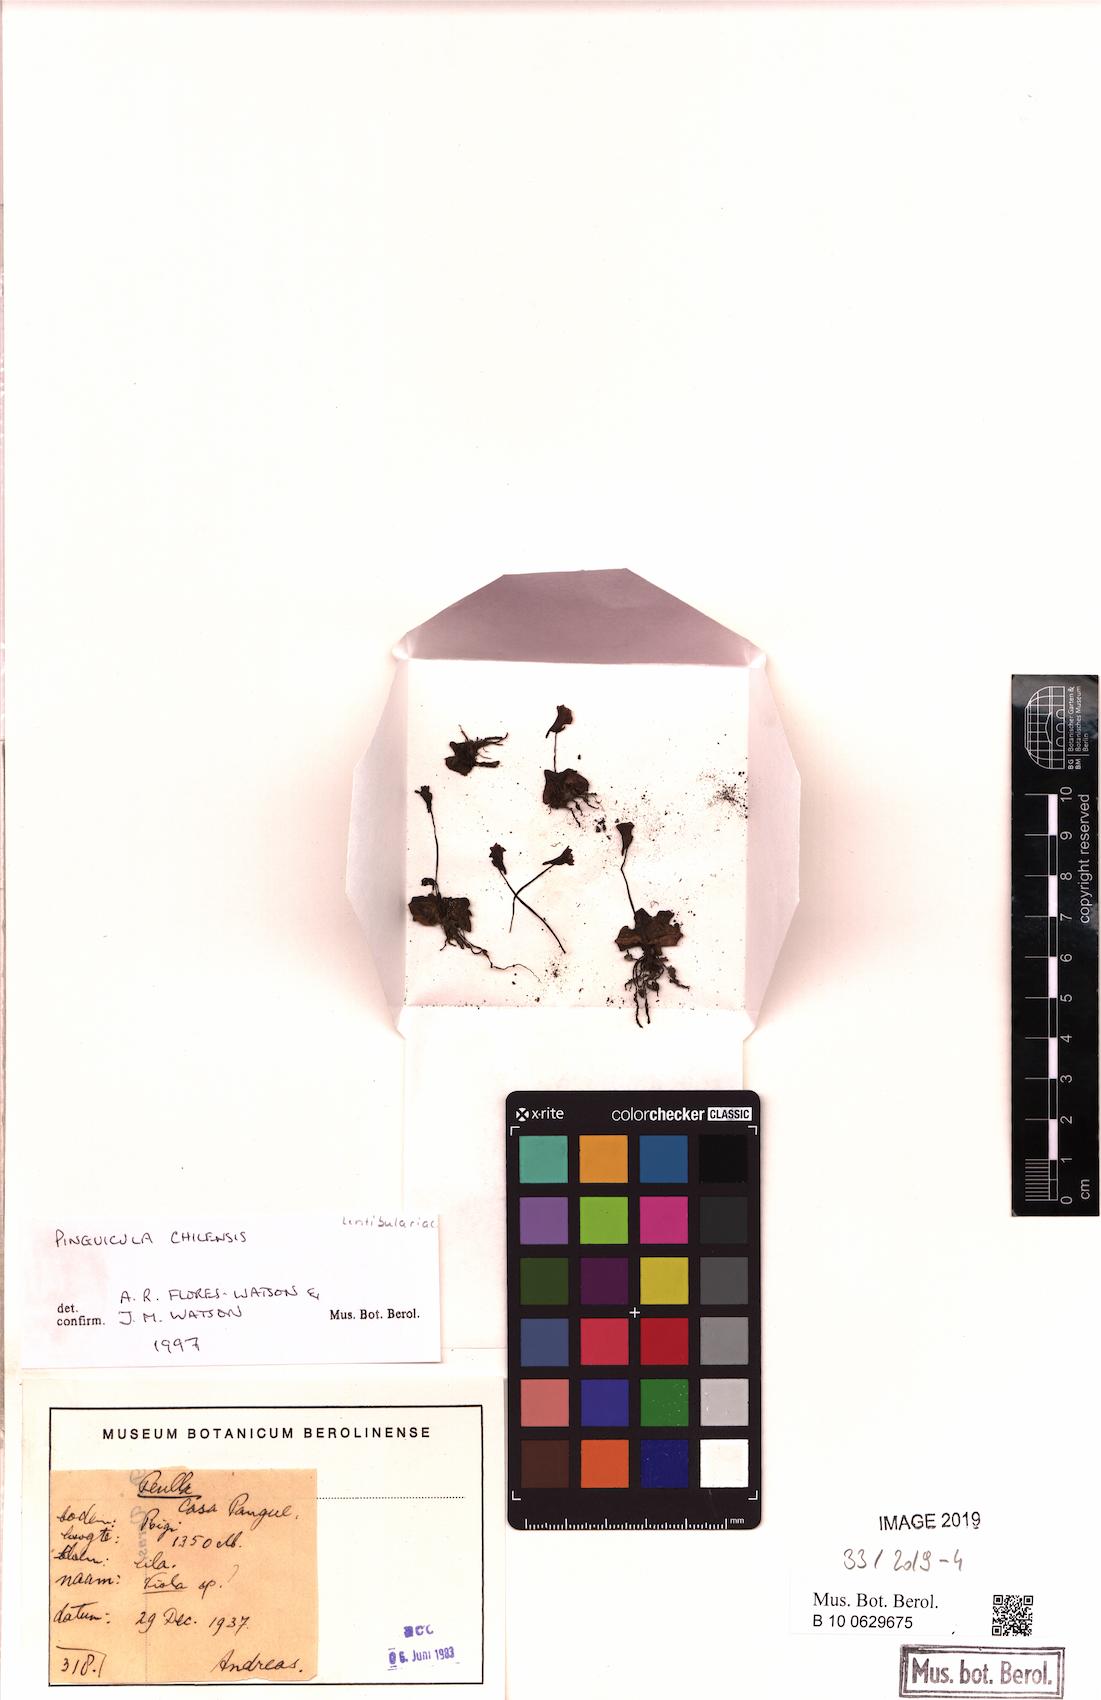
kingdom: Plantae
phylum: Tracheophyta
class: Magnoliopsida
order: Lamiales
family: Lentibulariaceae
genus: Pinguicula
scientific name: Pinguicula chilensis
